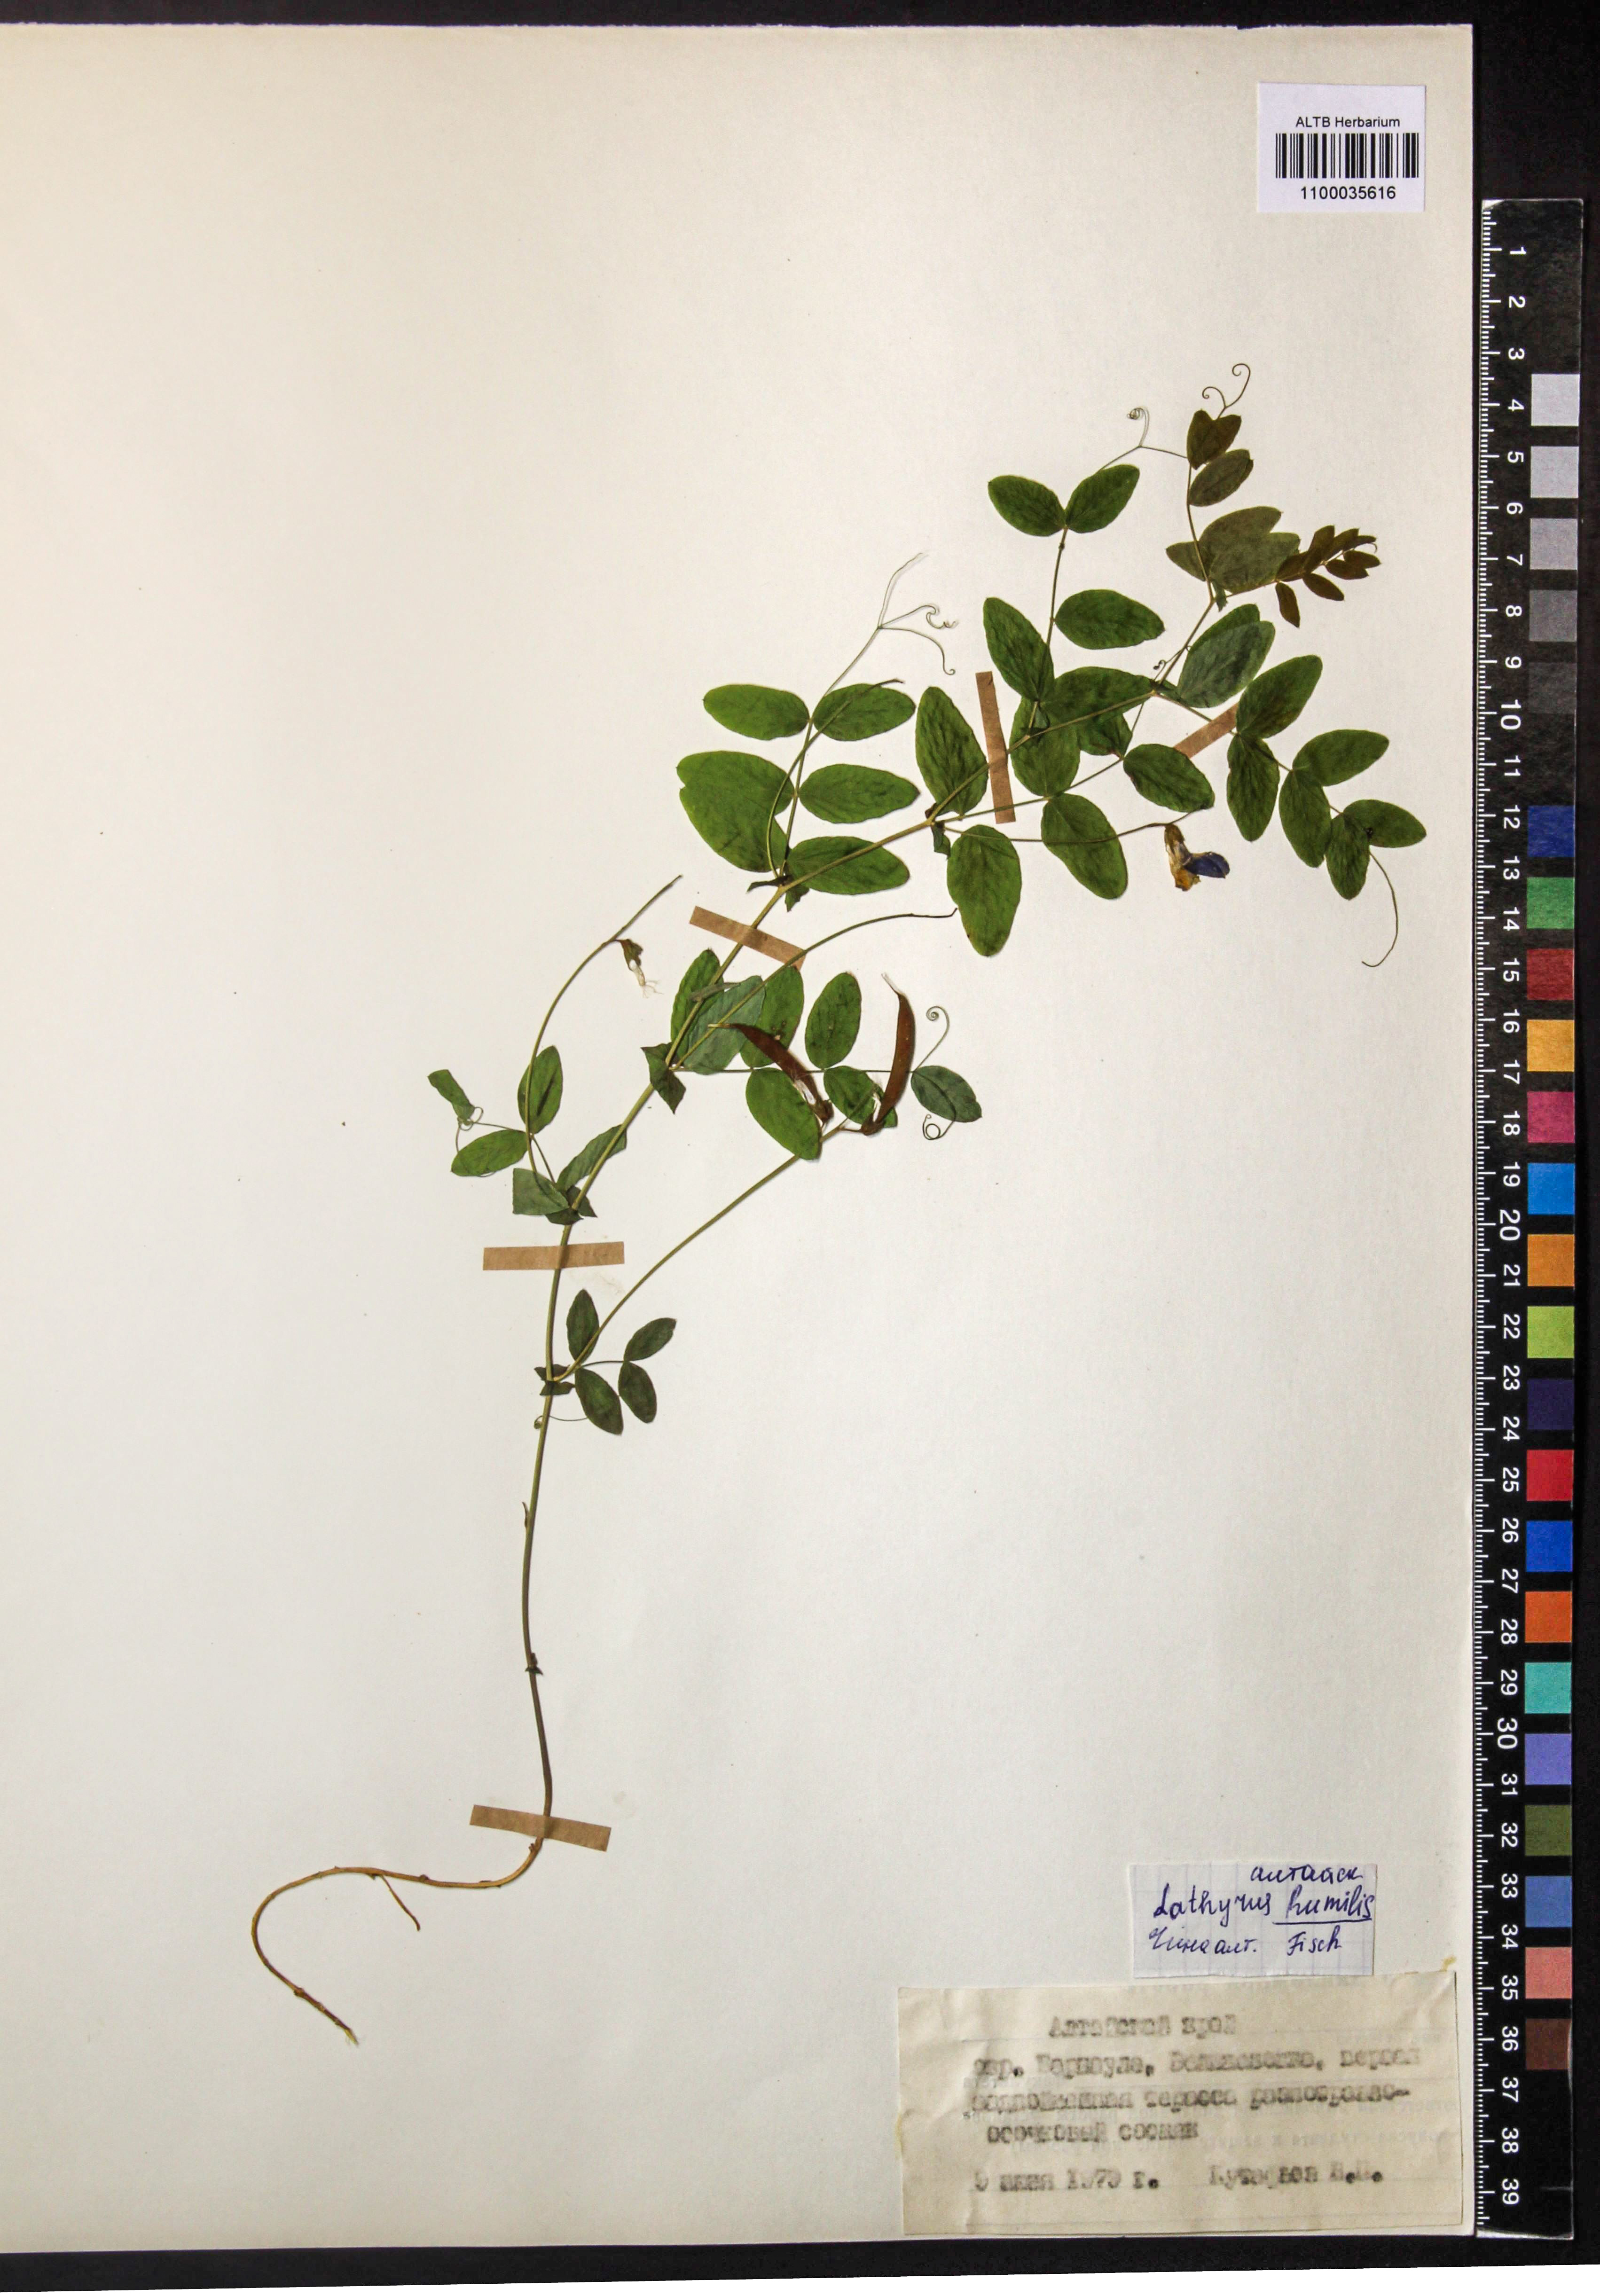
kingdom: Plantae
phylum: Tracheophyta
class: Magnoliopsida
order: Fabales
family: Fabaceae
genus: Lathyrus
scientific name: Lathyrus humilis
